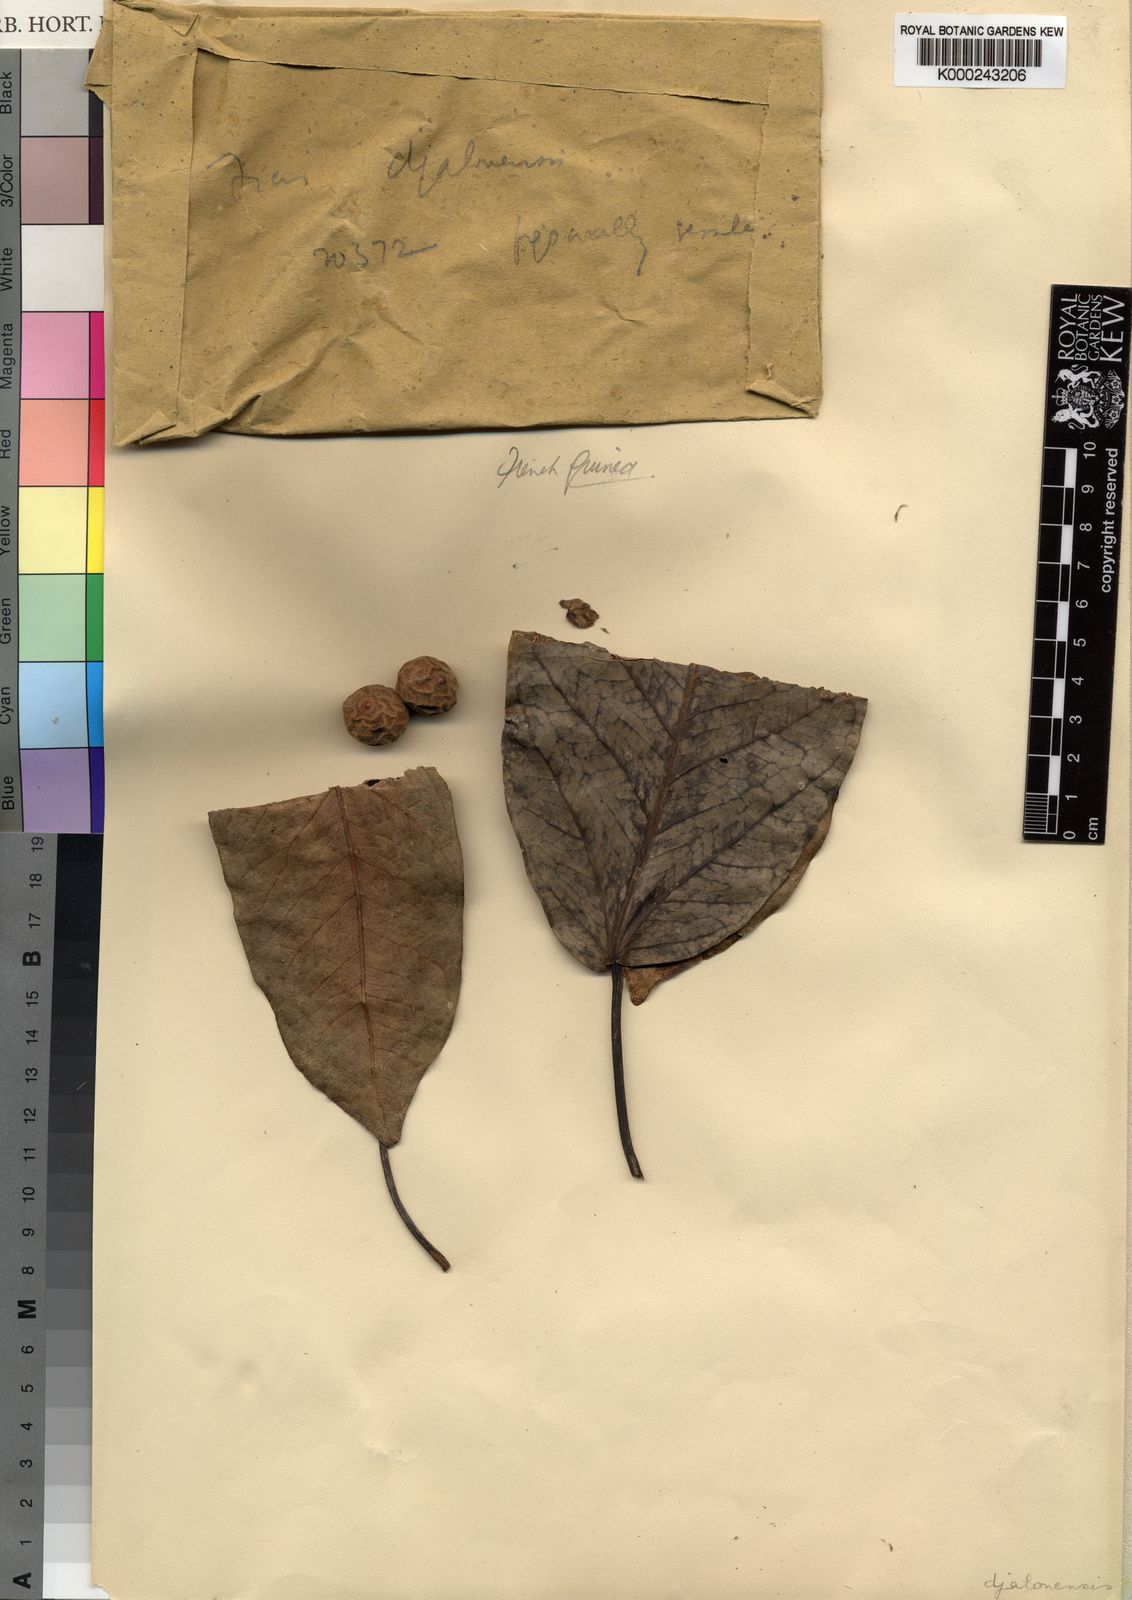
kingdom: Plantae
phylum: Tracheophyta
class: Magnoliopsida
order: Rosales
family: Moraceae
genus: Ficus
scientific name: Ficus calyptrata
